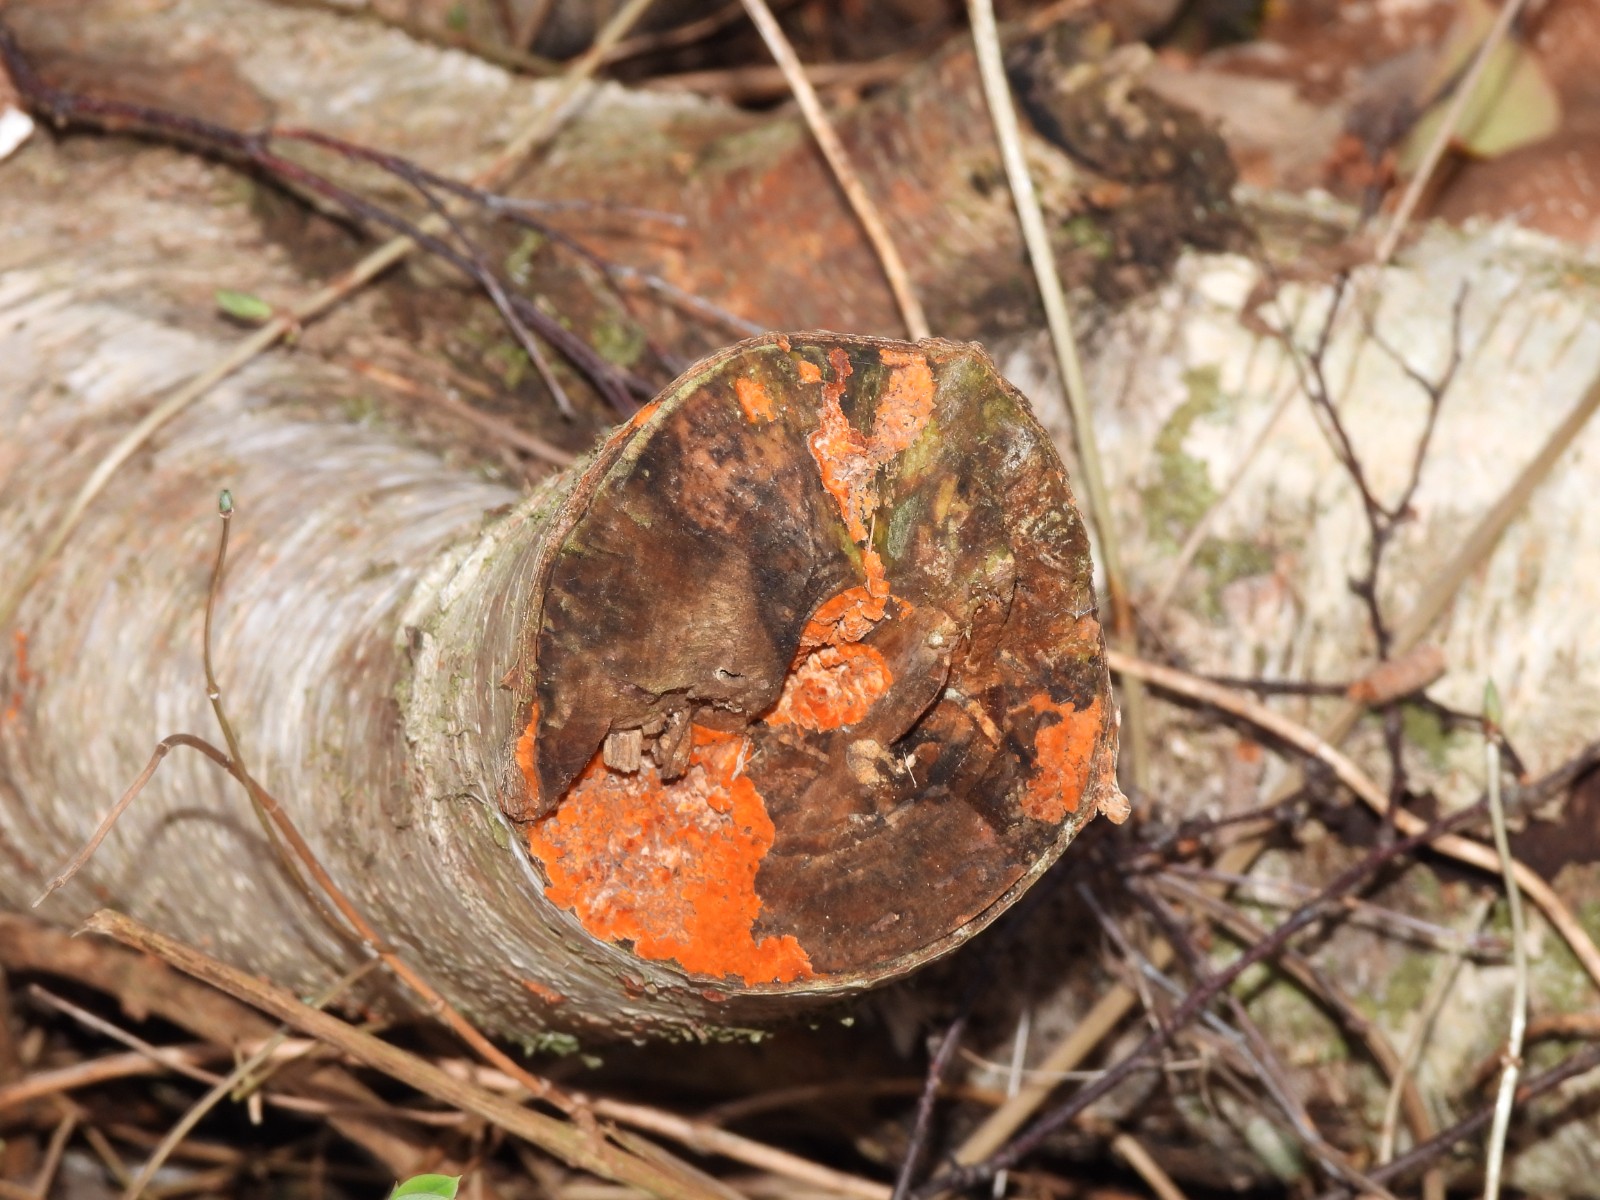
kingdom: Fungi
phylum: Basidiomycota
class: Agaricomycetes
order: Polyporales
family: Meruliaceae
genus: Phlebia
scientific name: Phlebia radiata
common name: stråle-åresvamp
